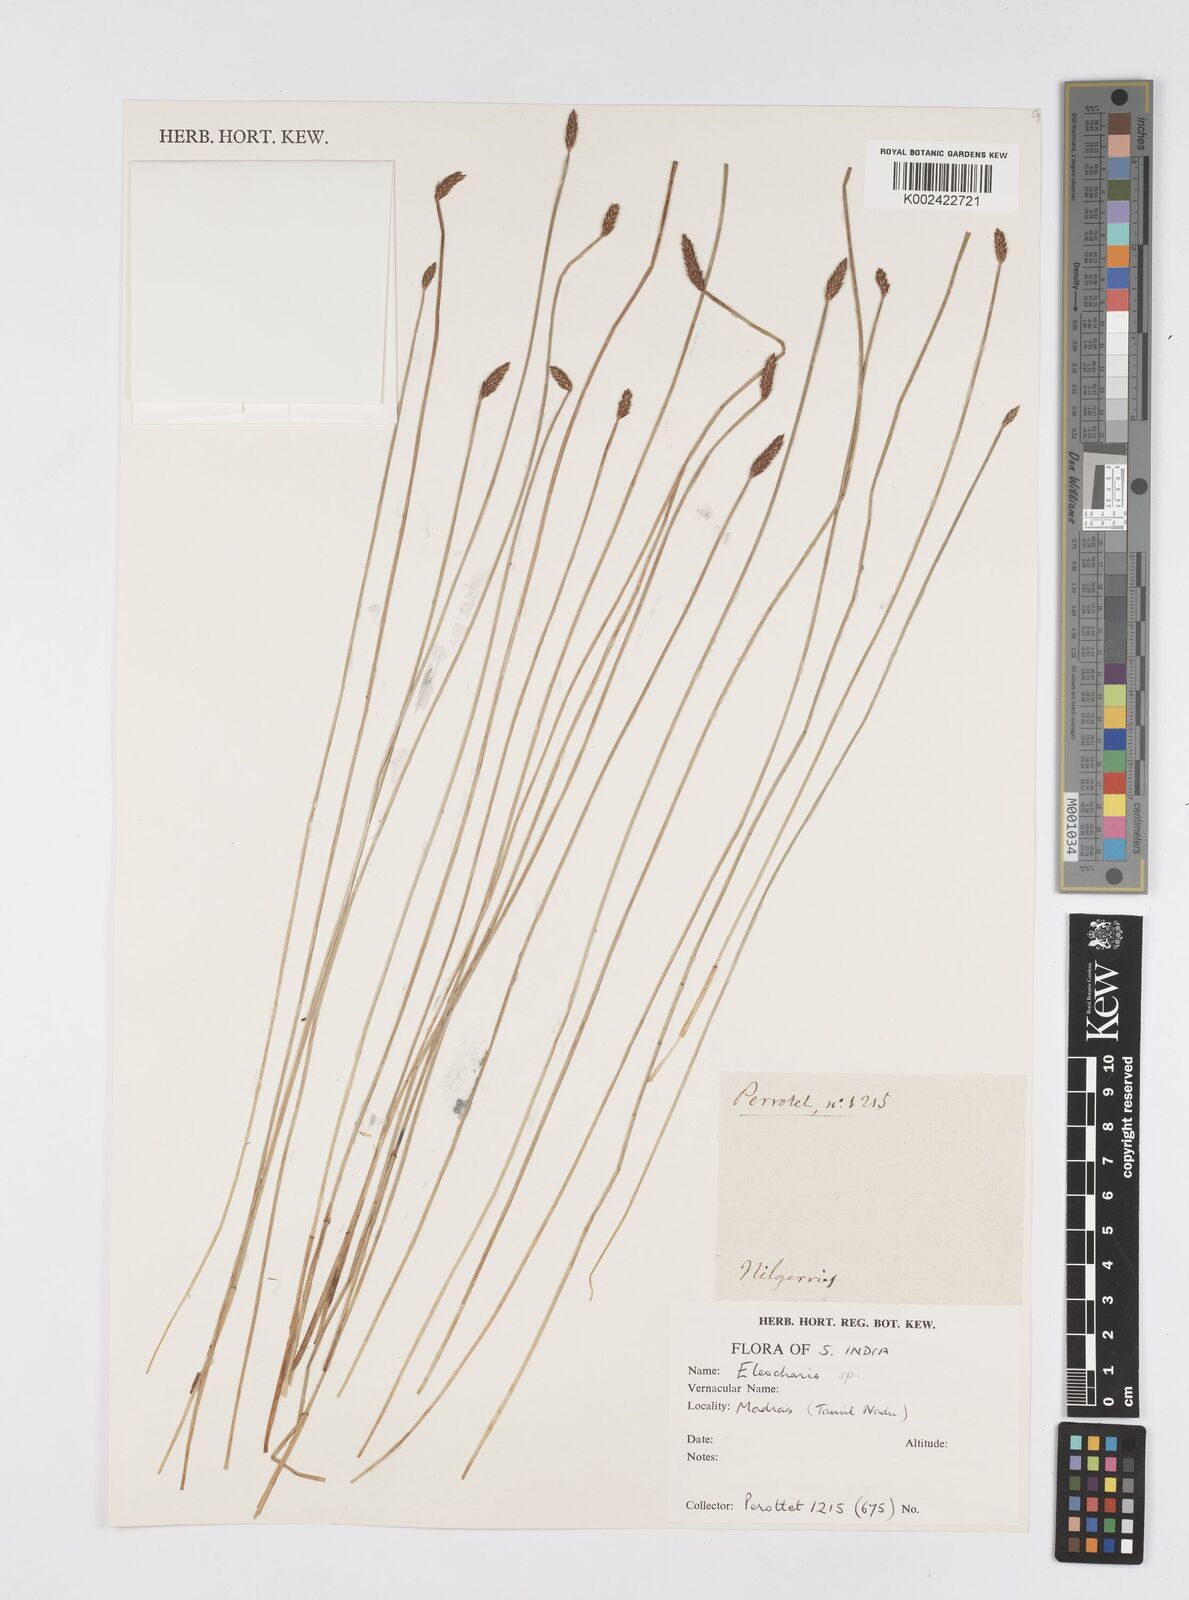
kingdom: Plantae
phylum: Tracheophyta
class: Liliopsida
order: Poales
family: Cyperaceae
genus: Eleocharis
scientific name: Eleocharis
